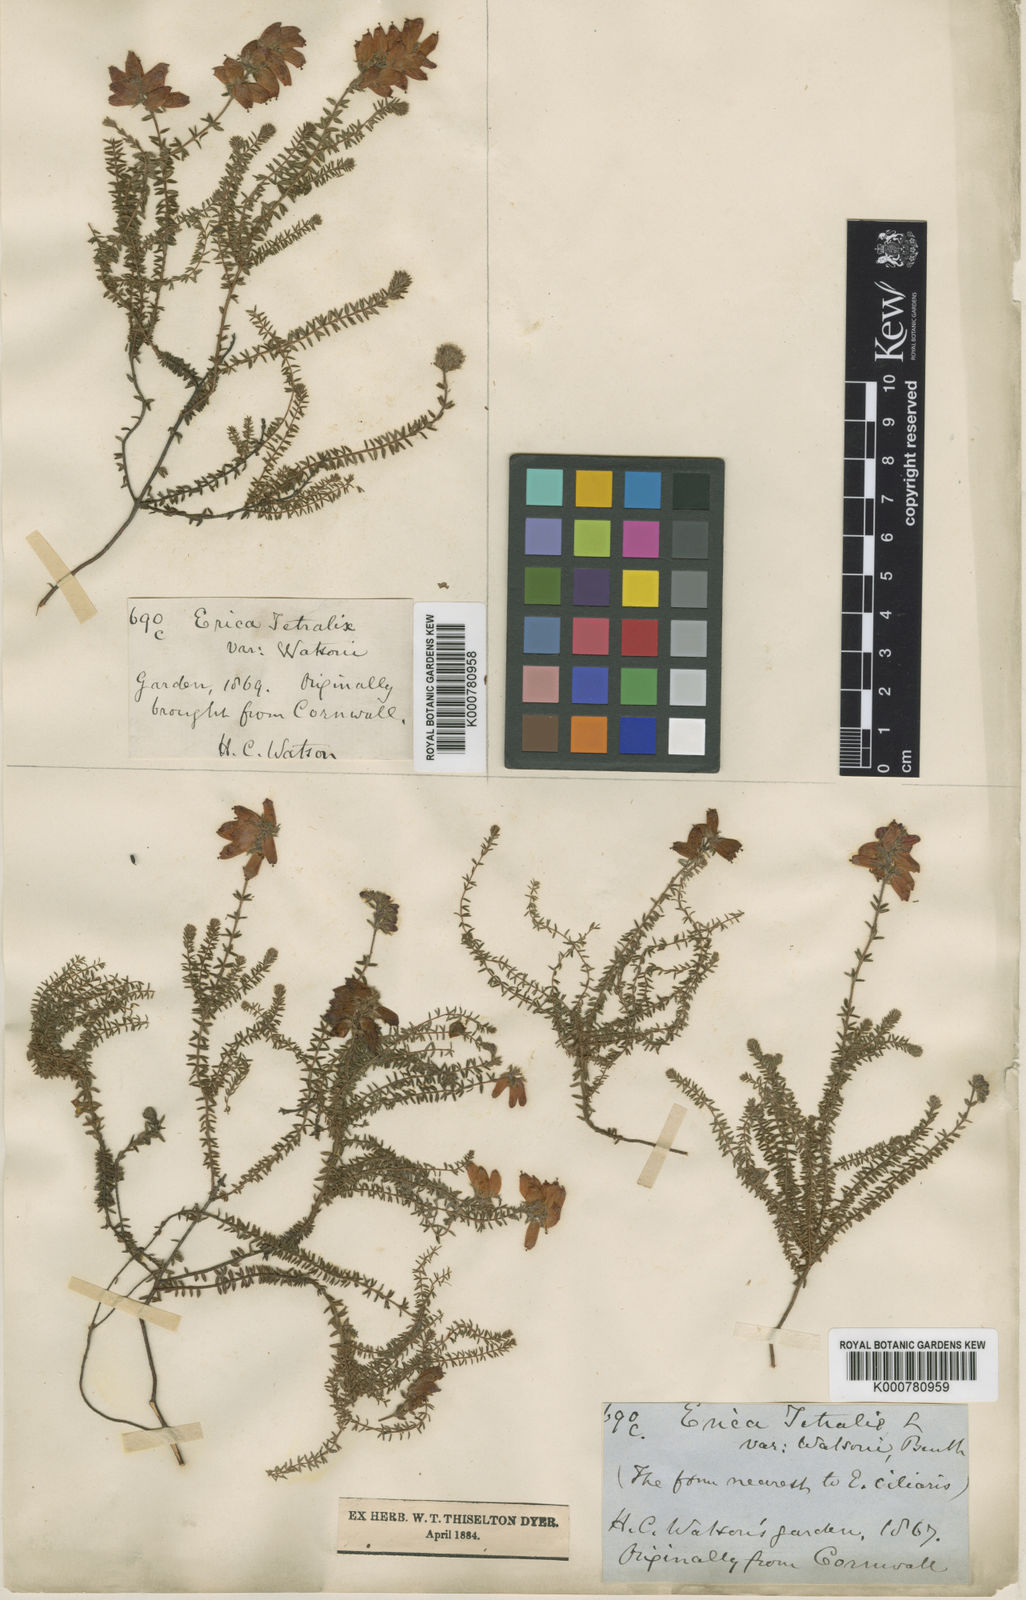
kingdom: Plantae
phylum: Tracheophyta
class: Magnoliopsida
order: Ericales
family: Ericaceae
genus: Erica
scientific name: Erica watsonii
